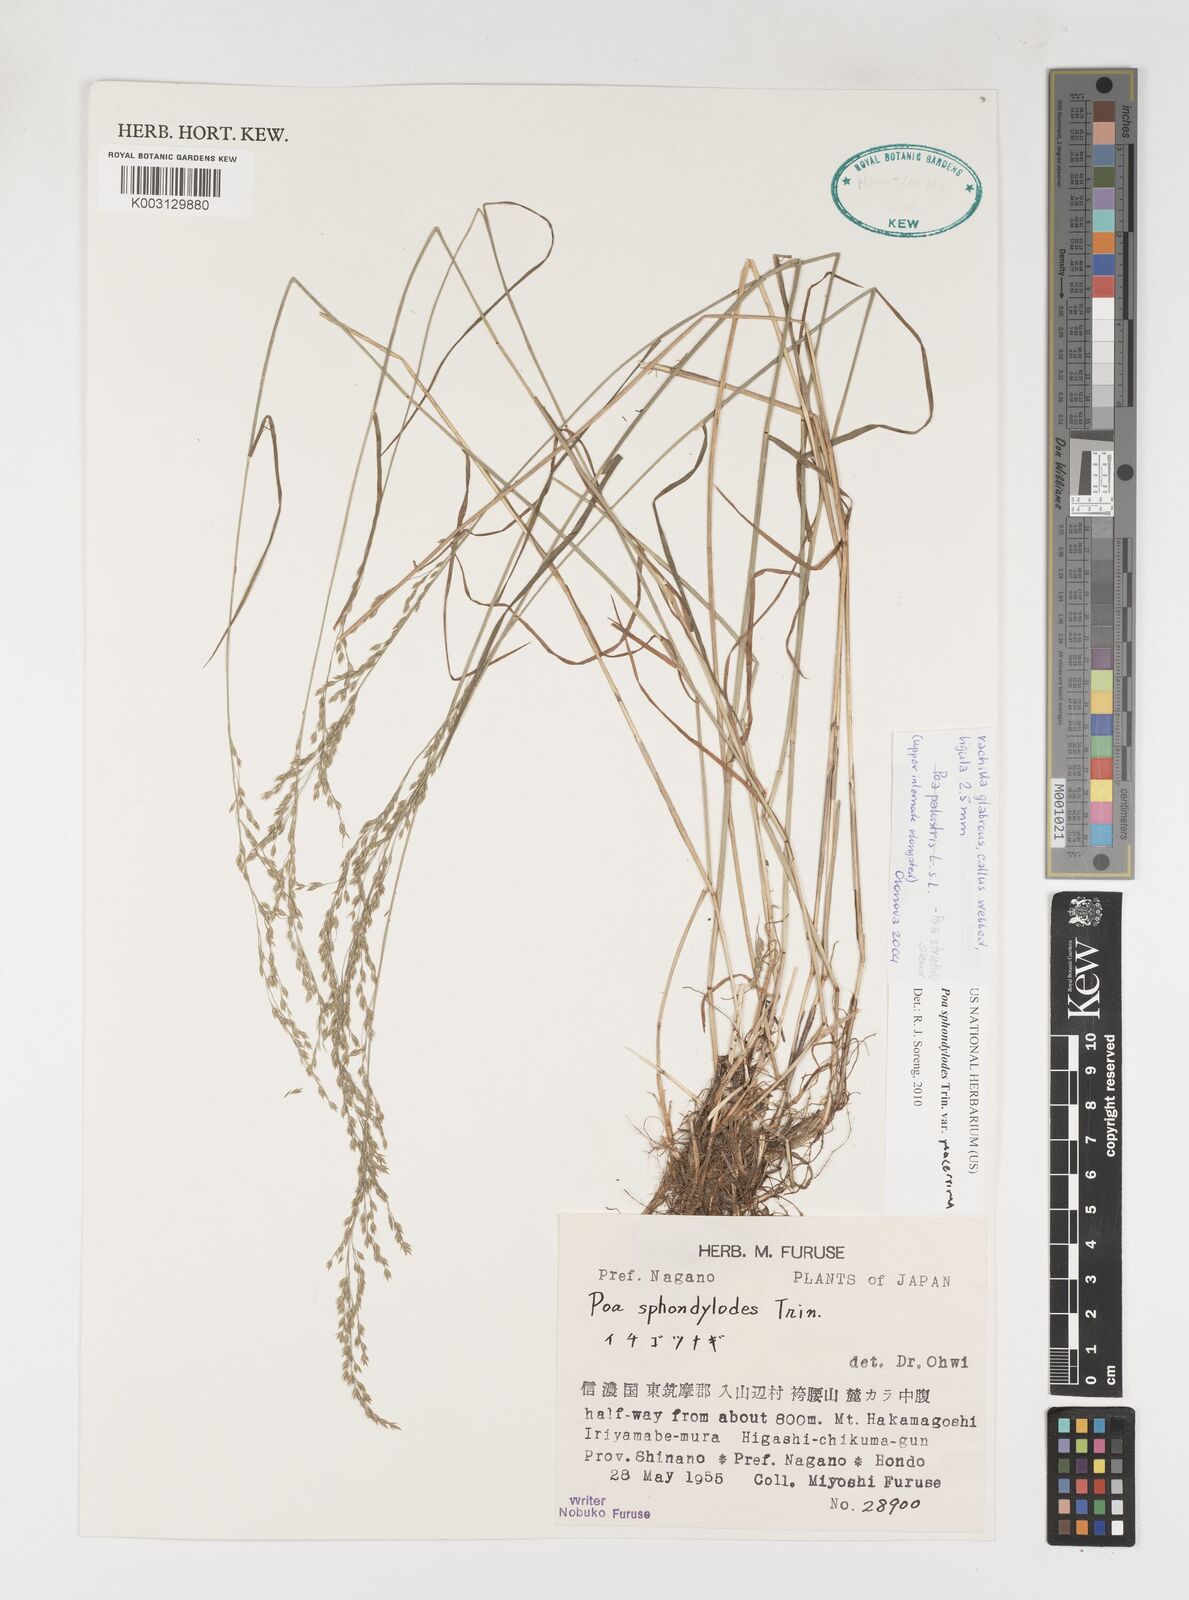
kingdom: Plantae
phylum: Tracheophyta
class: Liliopsida
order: Poales
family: Poaceae
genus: Poa
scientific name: Poa sphondylodes
